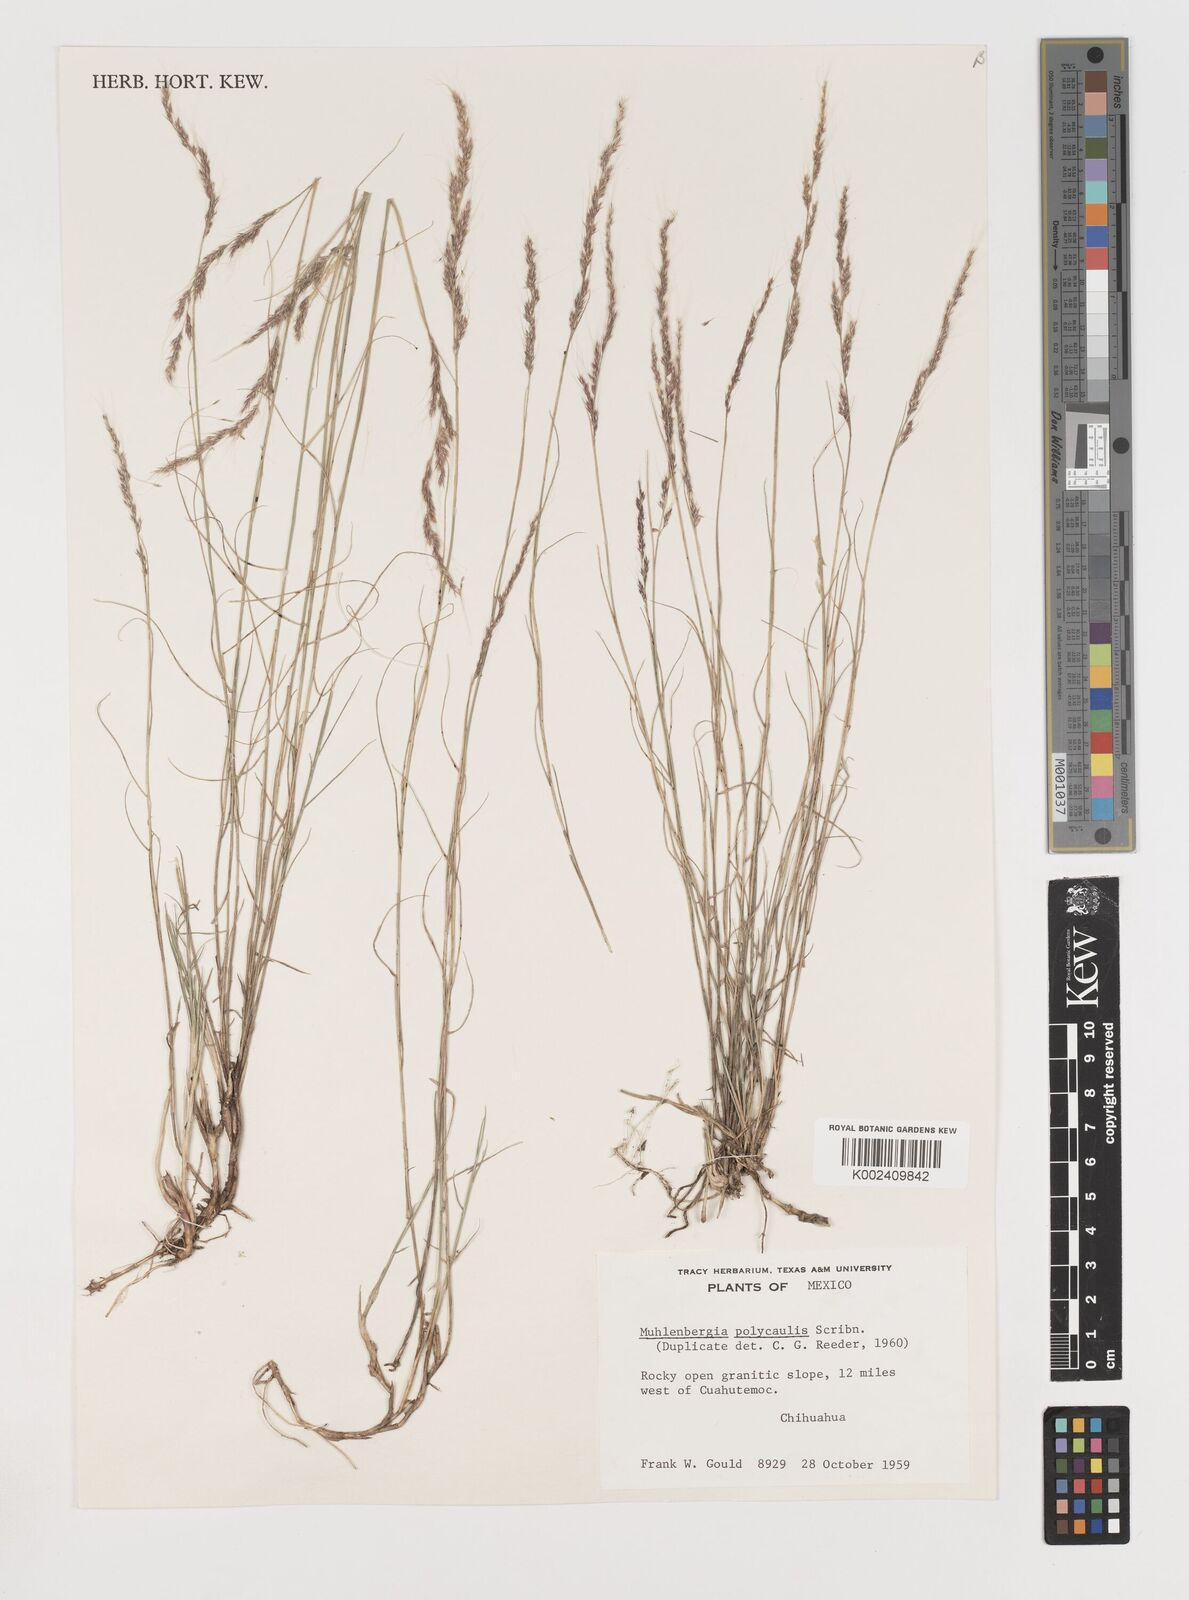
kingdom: Plantae
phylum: Tracheophyta
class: Liliopsida
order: Poales
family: Poaceae
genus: Muhlenbergia
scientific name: Muhlenbergia polycaulis
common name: Cliff muhly
